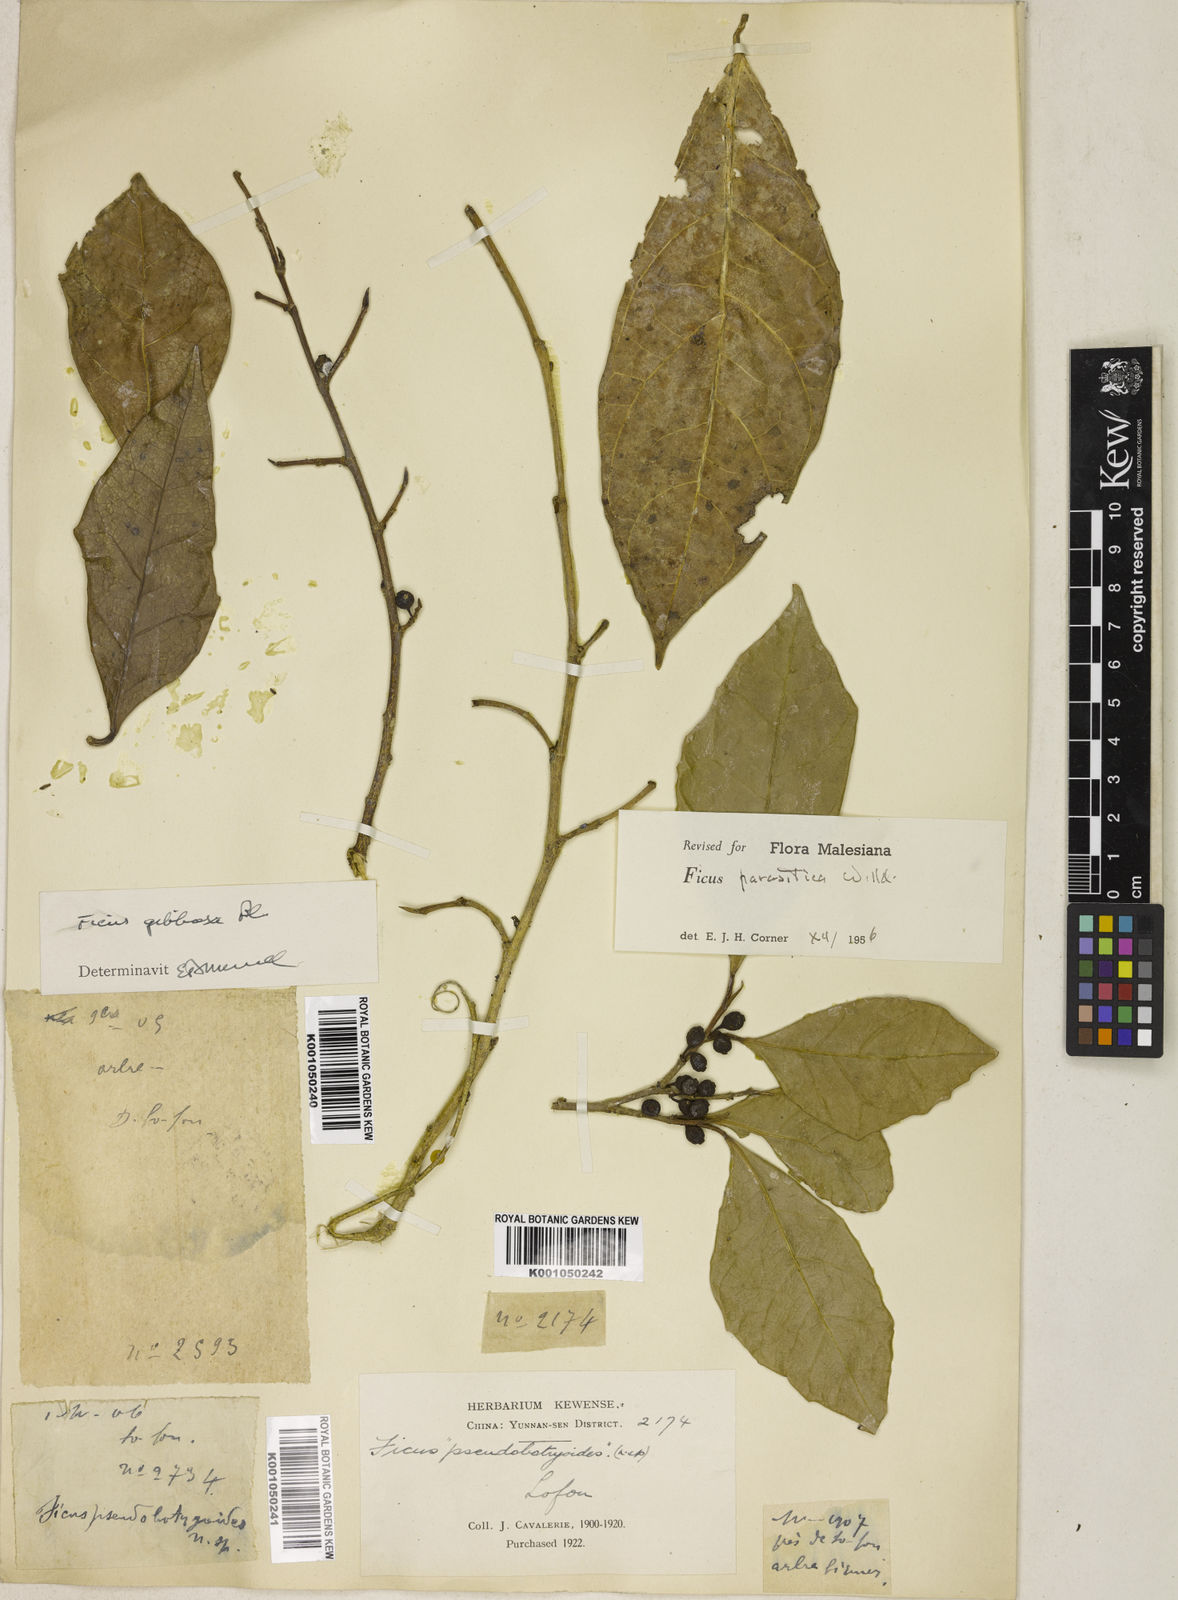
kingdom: Plantae
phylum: Tracheophyta
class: Magnoliopsida
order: Rosales
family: Moraceae
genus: Ficus
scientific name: Ficus tinctoria
